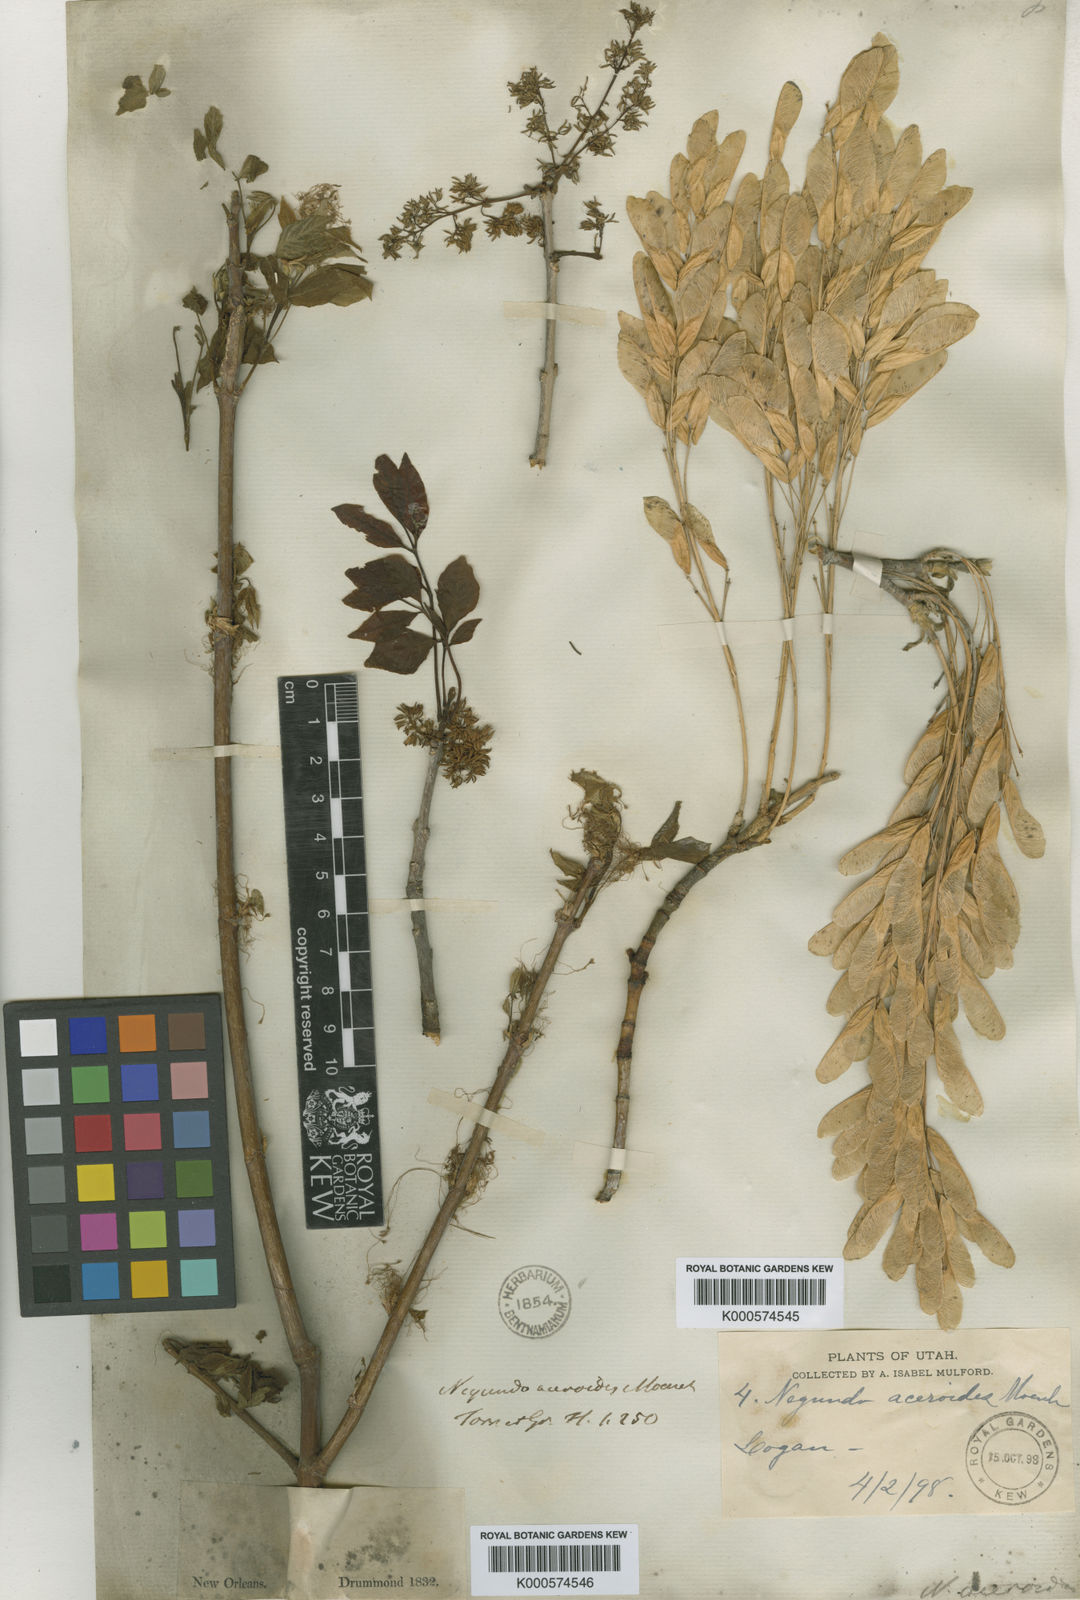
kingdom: Plantae
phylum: Tracheophyta
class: Magnoliopsida
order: Sapindales
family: Sapindaceae
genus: Acer
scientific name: Acer negundo
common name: Ashleaf maple
